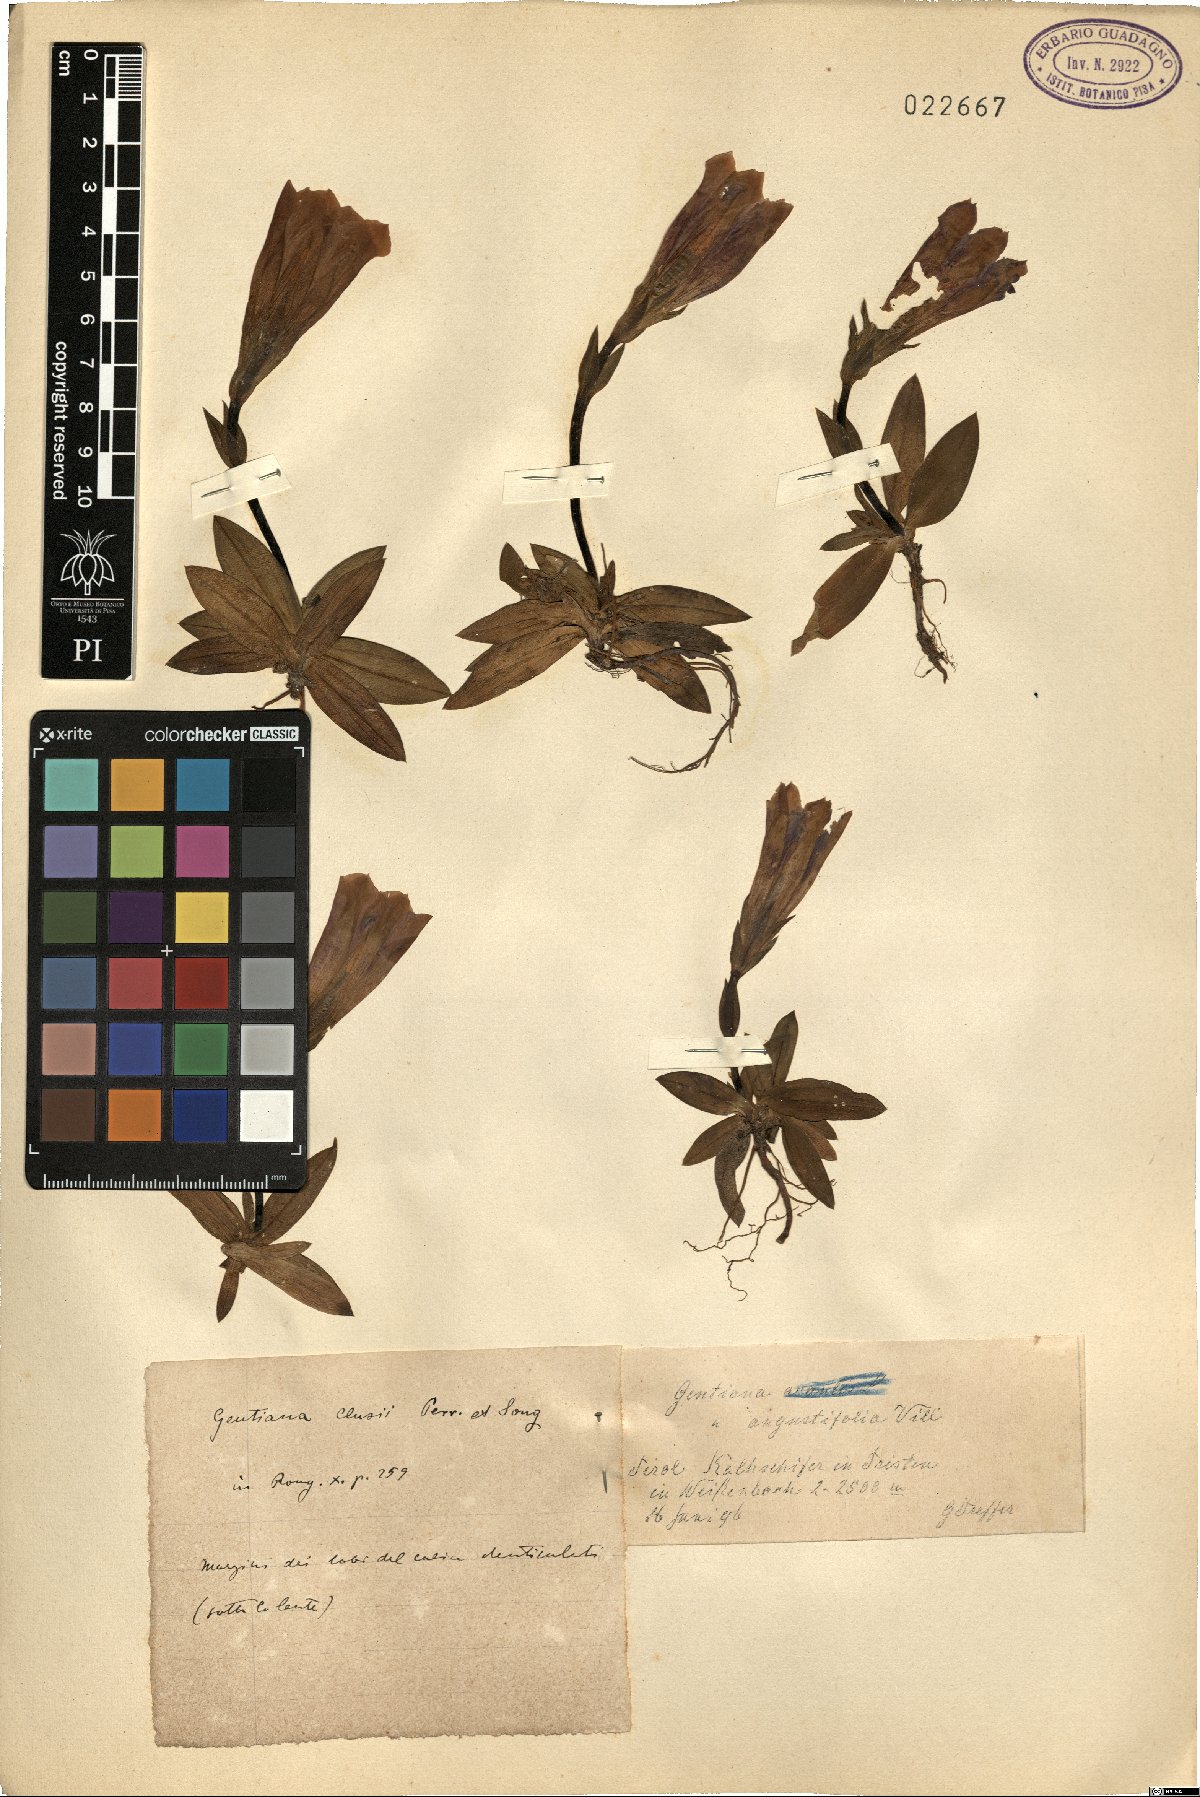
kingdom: Plantae
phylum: Tracheophyta
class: Magnoliopsida
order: Gentianales
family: Gentianaceae
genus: Gentiana
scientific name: Gentiana clusii
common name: Trumpet gentian
